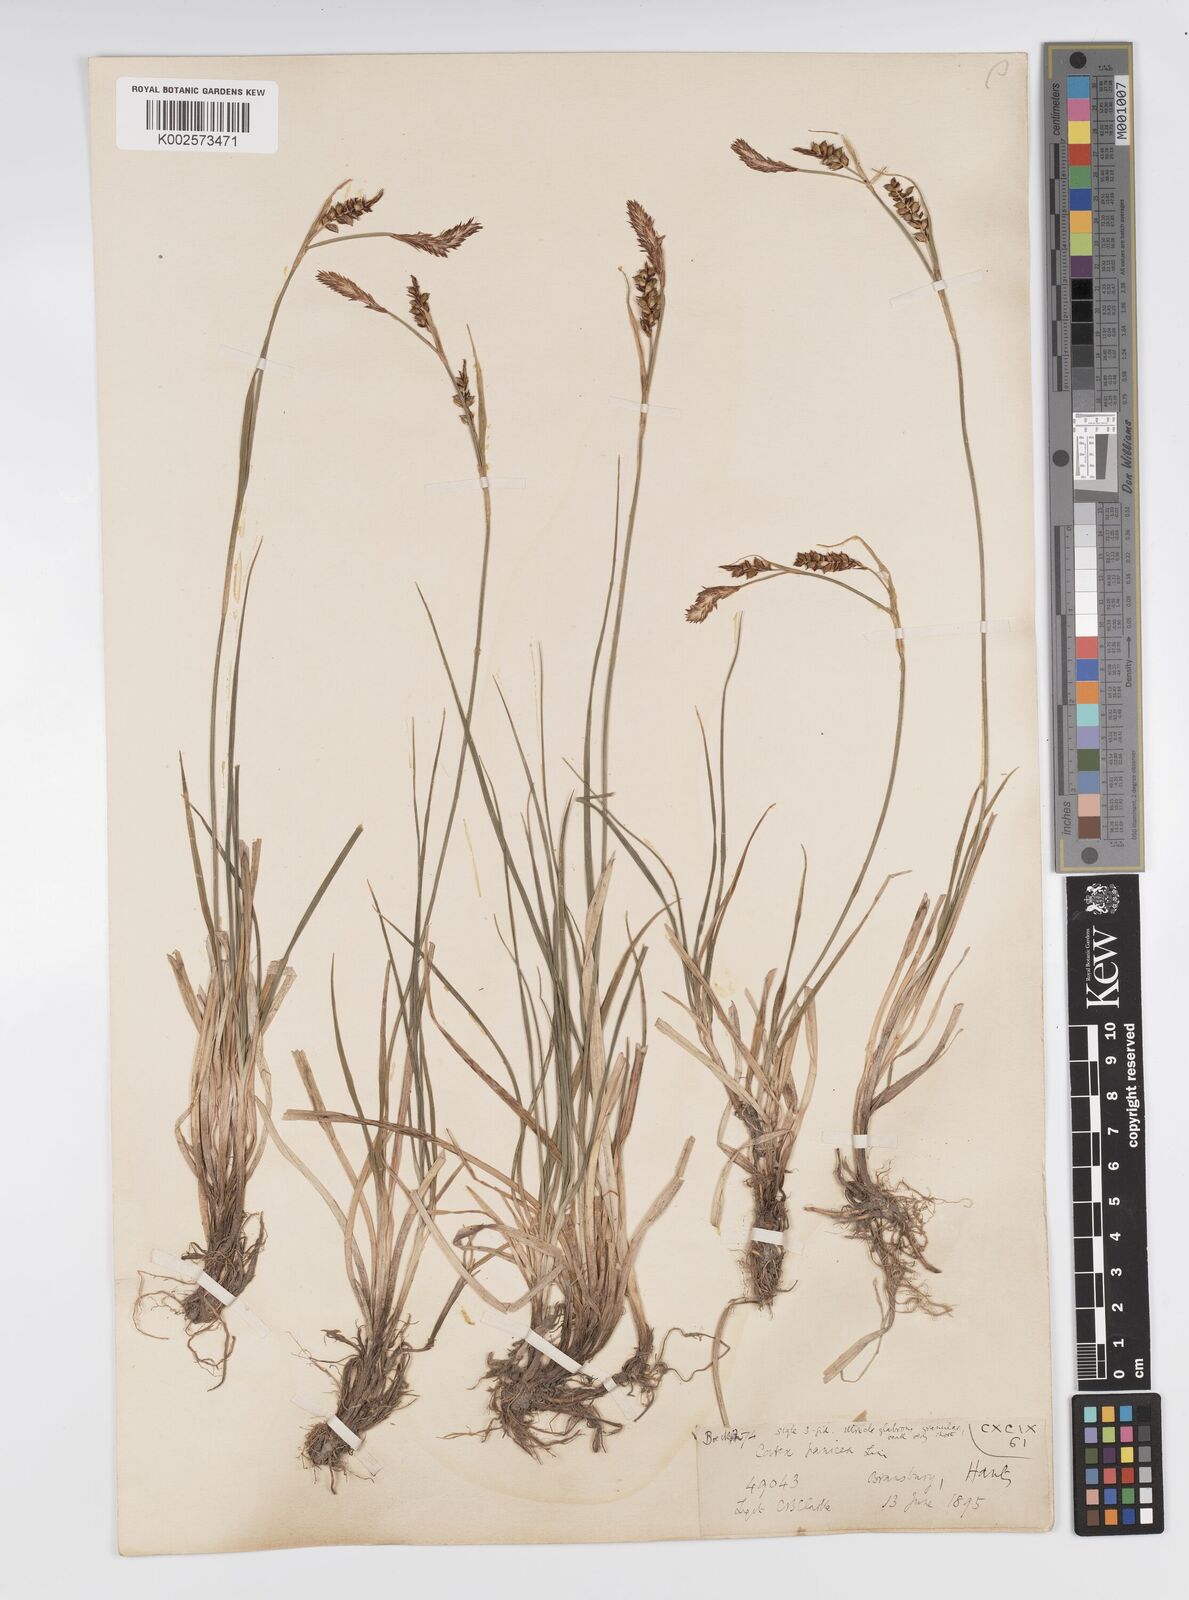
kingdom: Plantae
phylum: Tracheophyta
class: Liliopsida
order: Poales
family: Cyperaceae
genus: Carex
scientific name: Carex panicea
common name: Carnation sedge
